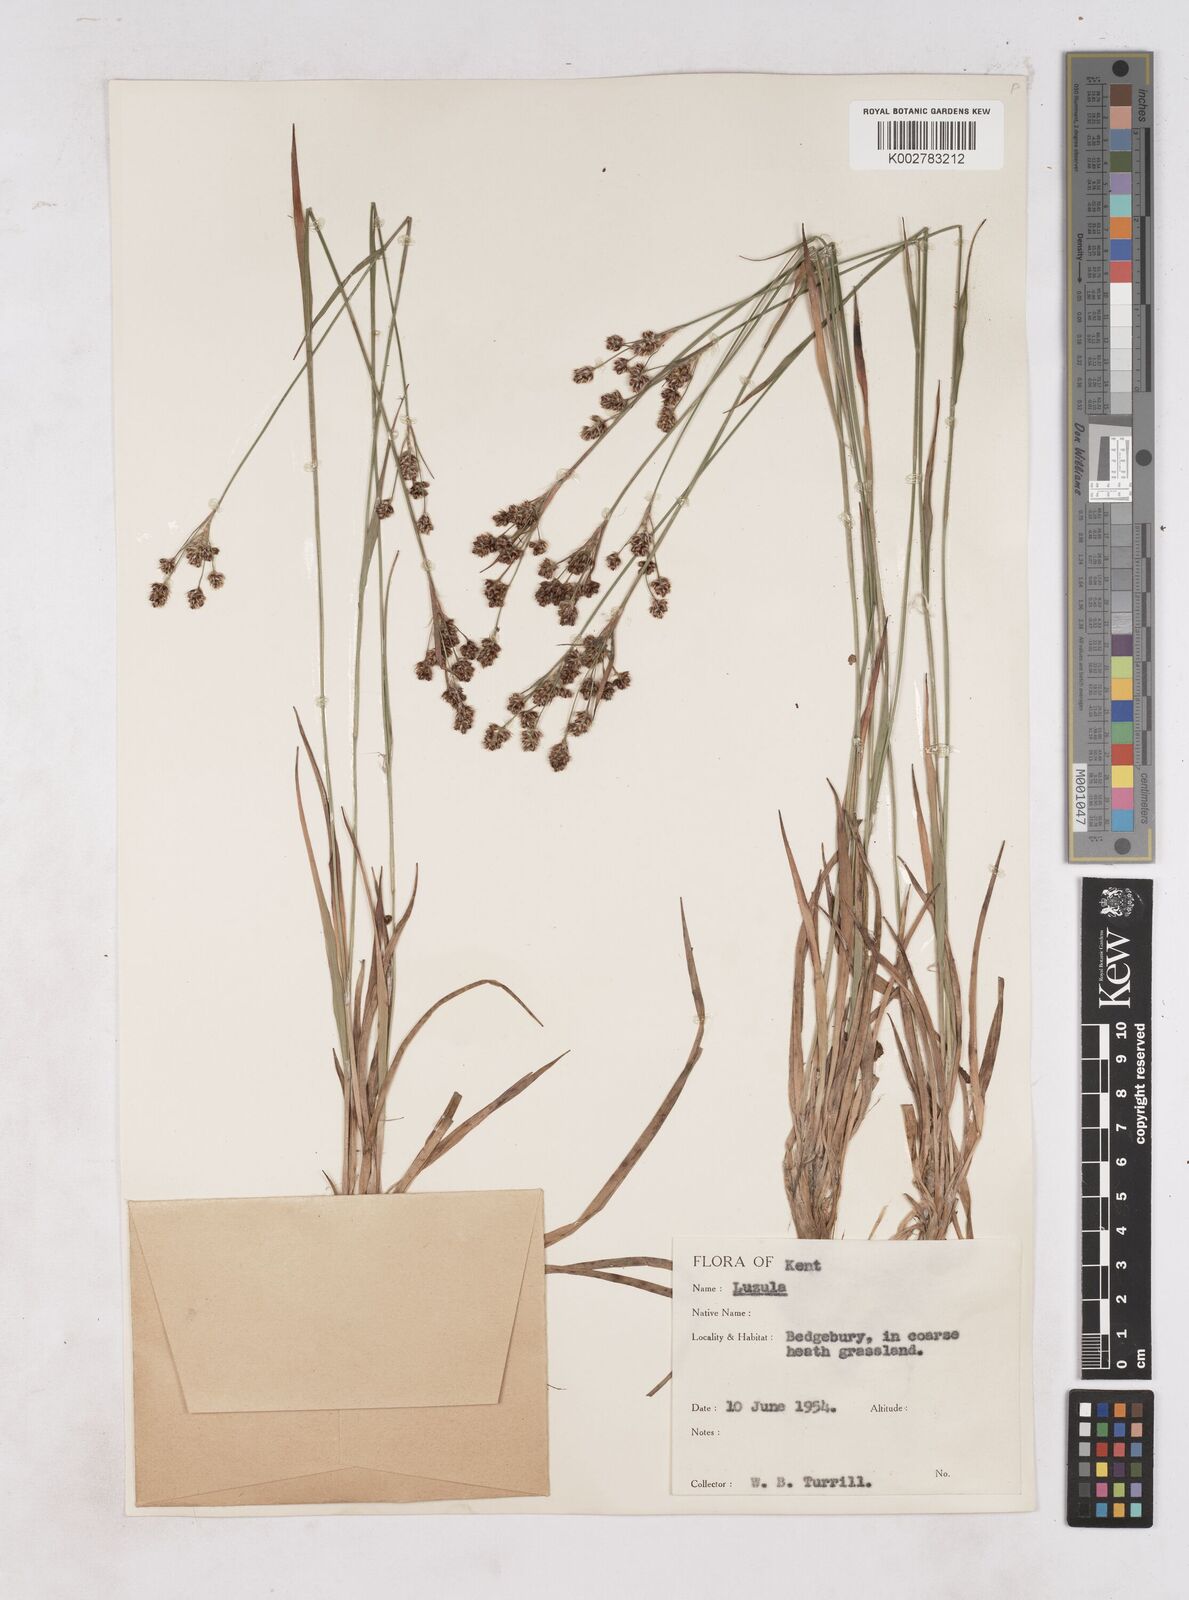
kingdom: Plantae
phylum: Tracheophyta
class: Liliopsida
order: Poales
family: Juncaceae
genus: Luzula
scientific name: Luzula multiflora
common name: Heath wood-rush
